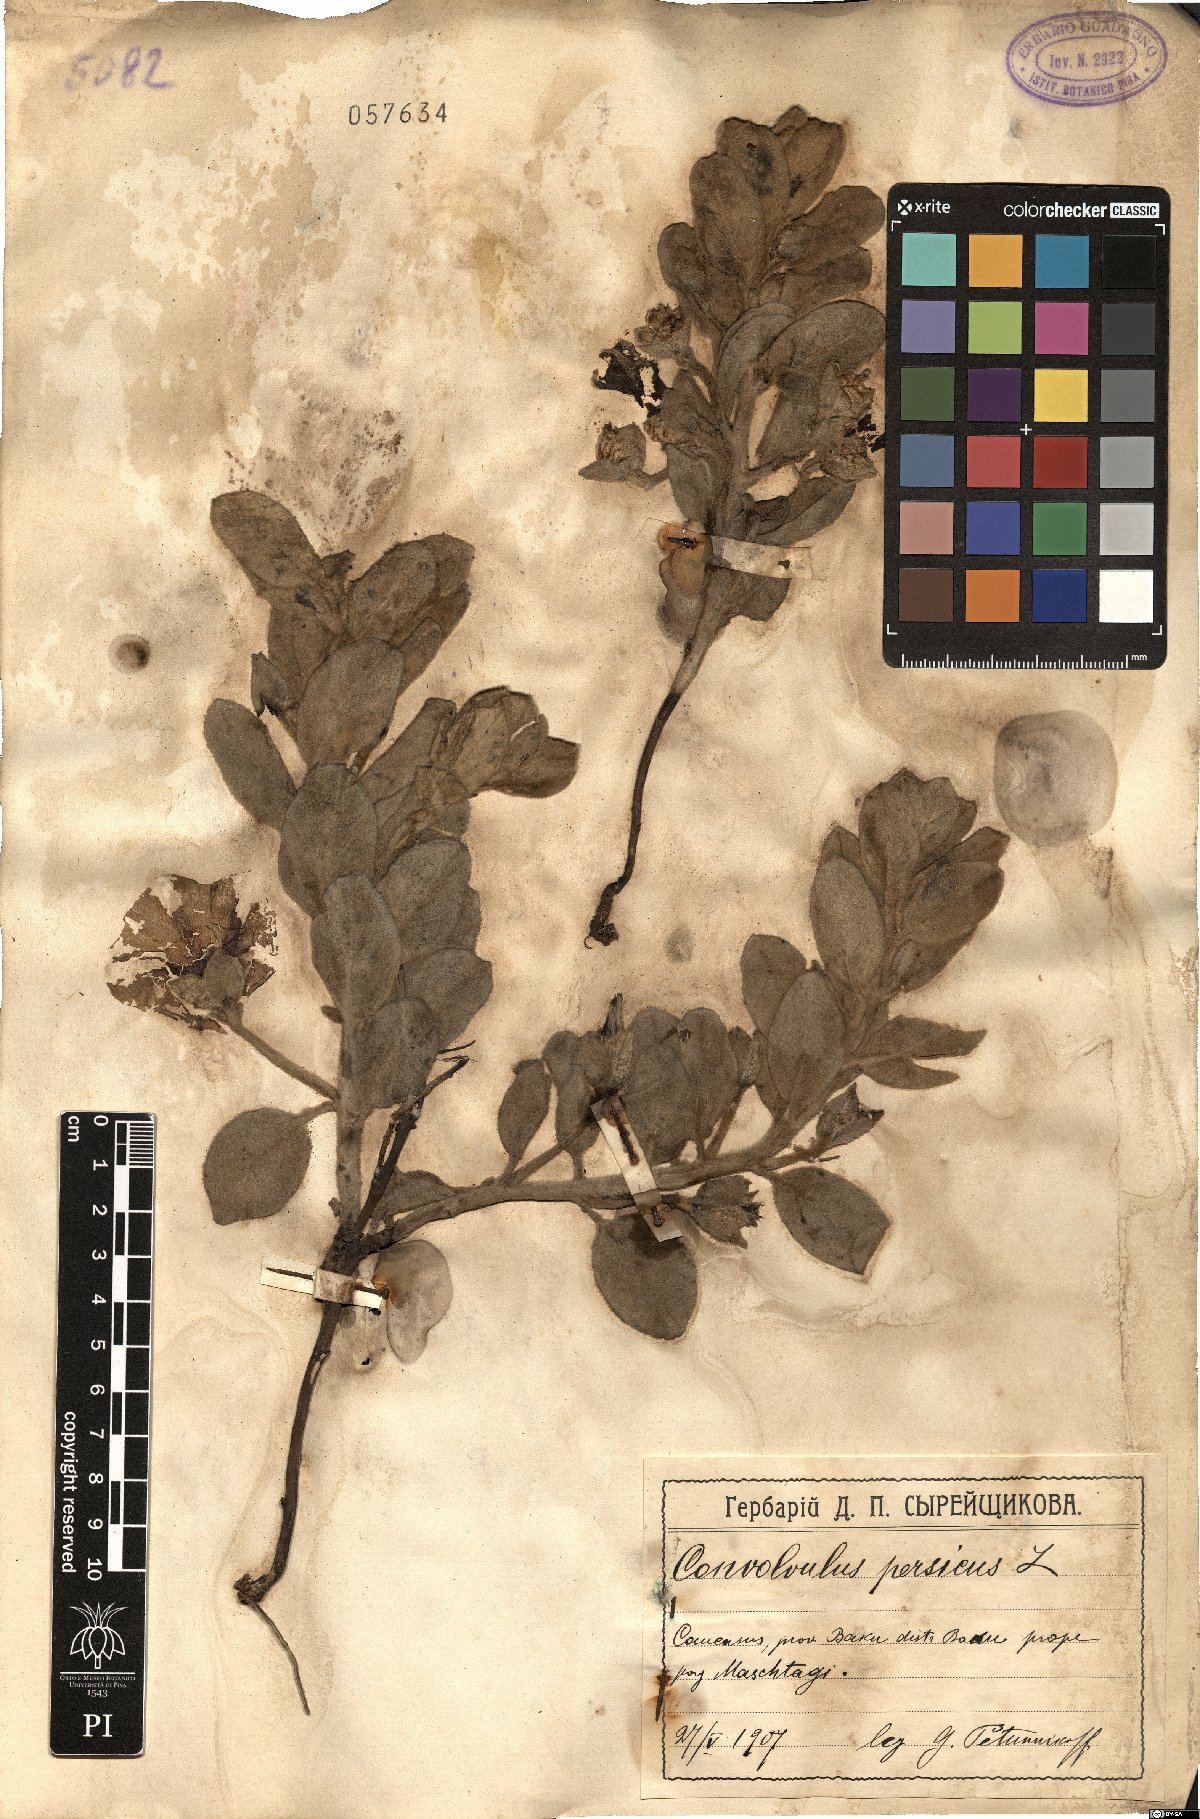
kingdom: Plantae
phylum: Tracheophyta
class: Magnoliopsida
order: Solanales
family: Convolvulaceae
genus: Convolvulus
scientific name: Convolvulus persicus
